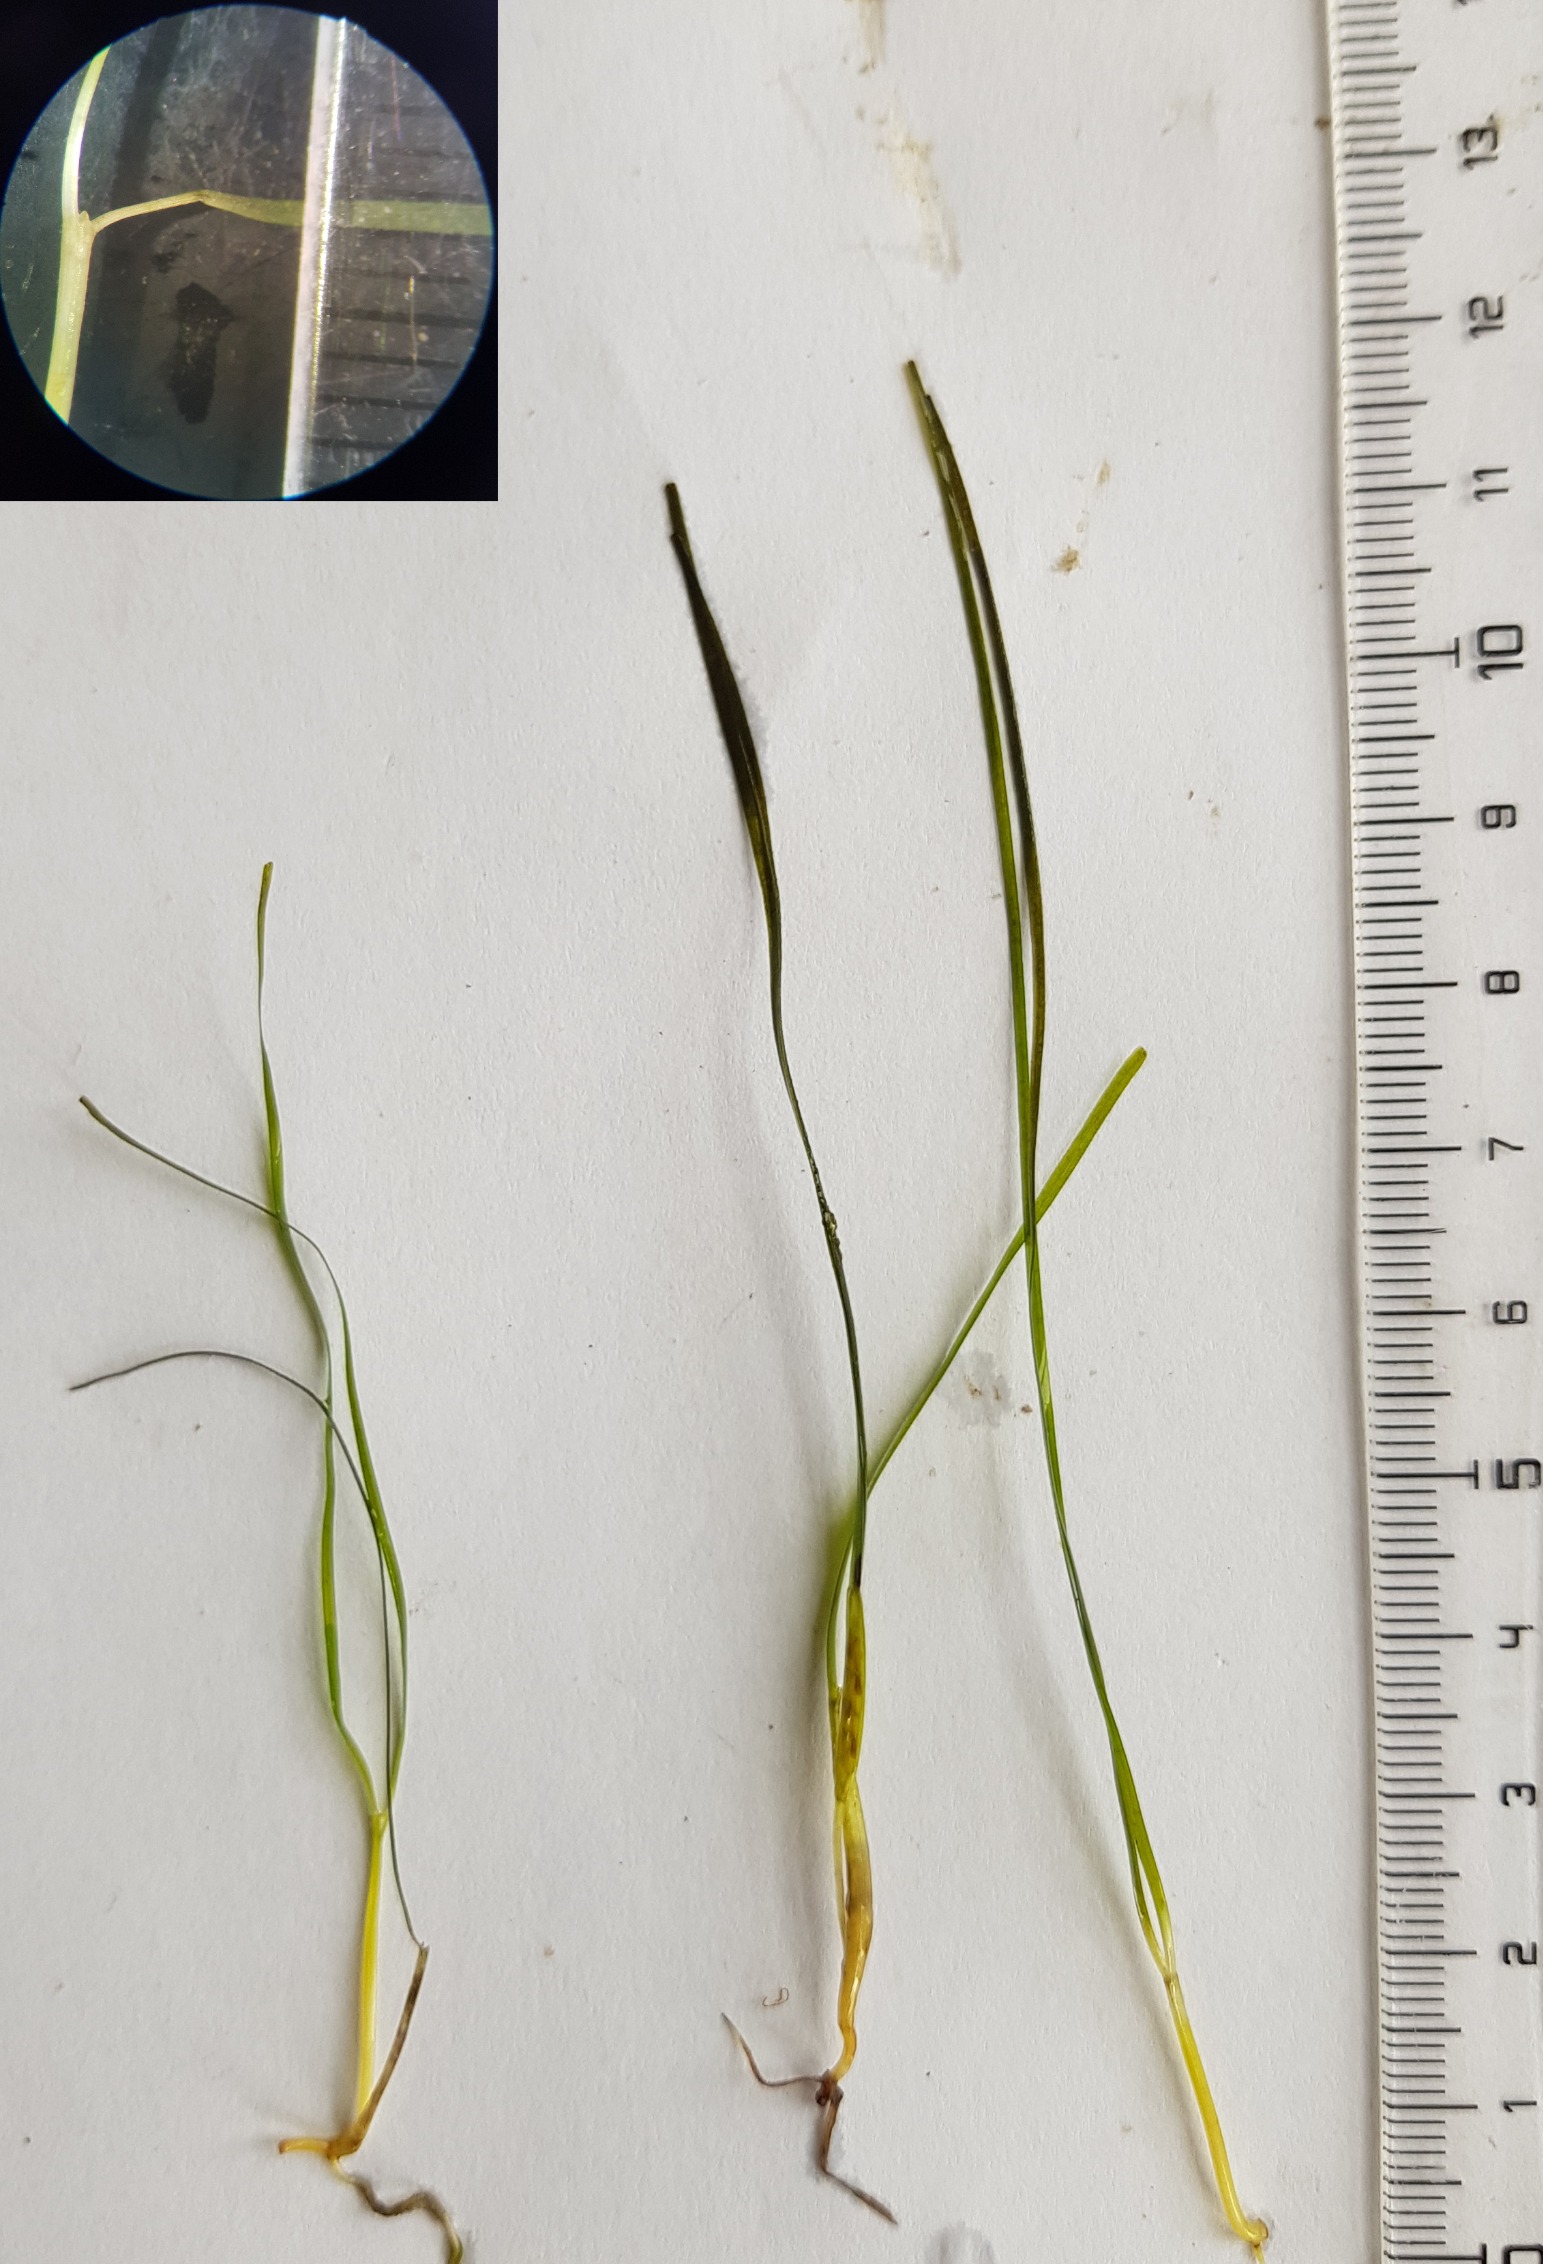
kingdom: Plantae
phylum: Tracheophyta
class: Liliopsida
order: Alismatales
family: Zosteraceae
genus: Zostera
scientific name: Zostera noltii
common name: Dværg-bændeltang
